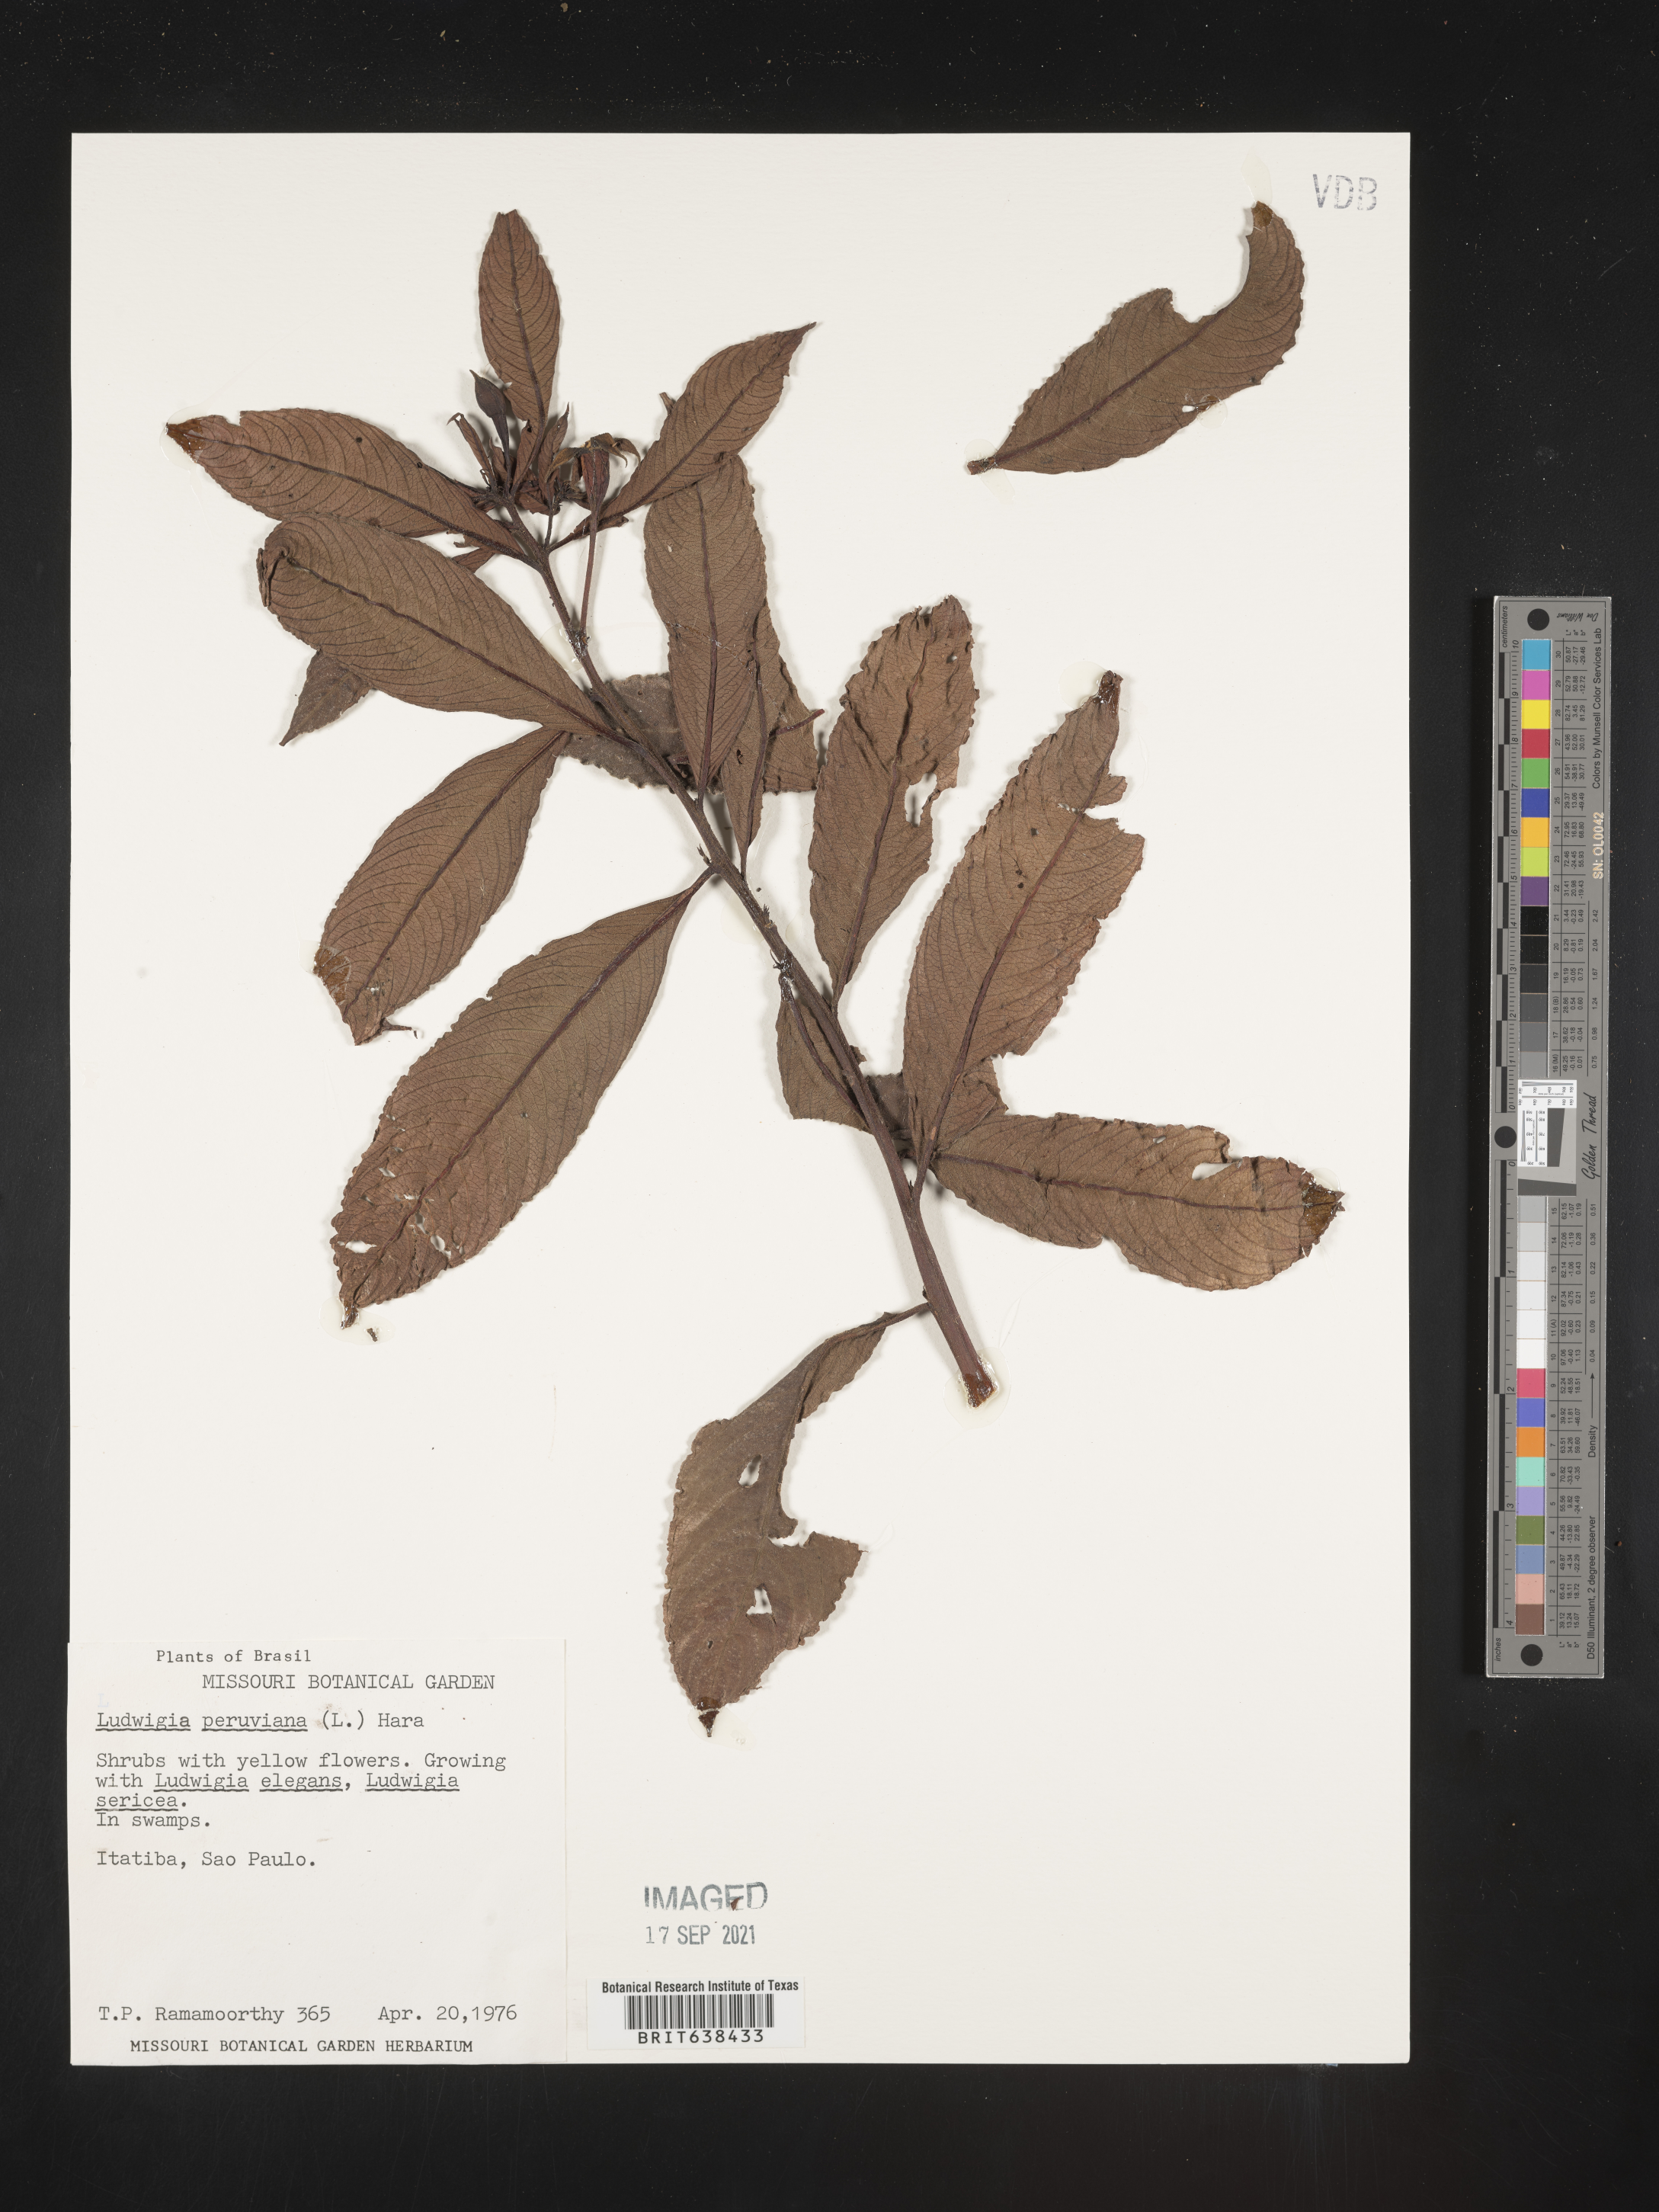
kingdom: Plantae
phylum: Tracheophyta
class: Magnoliopsida
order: Myrtales
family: Onagraceae
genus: Ludwigia
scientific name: Ludwigia
